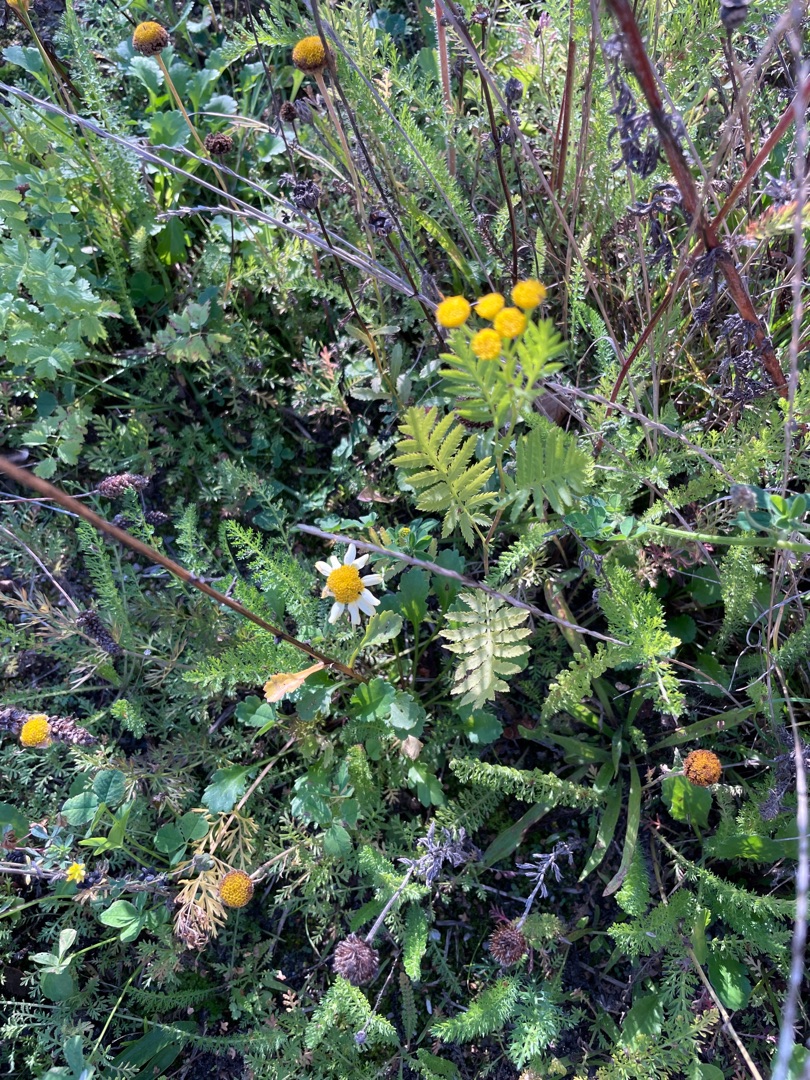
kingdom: Plantae
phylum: Tracheophyta
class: Magnoliopsida
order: Asterales
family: Asteraceae
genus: Tanacetum
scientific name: Tanacetum vulgare
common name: Rejnfan
